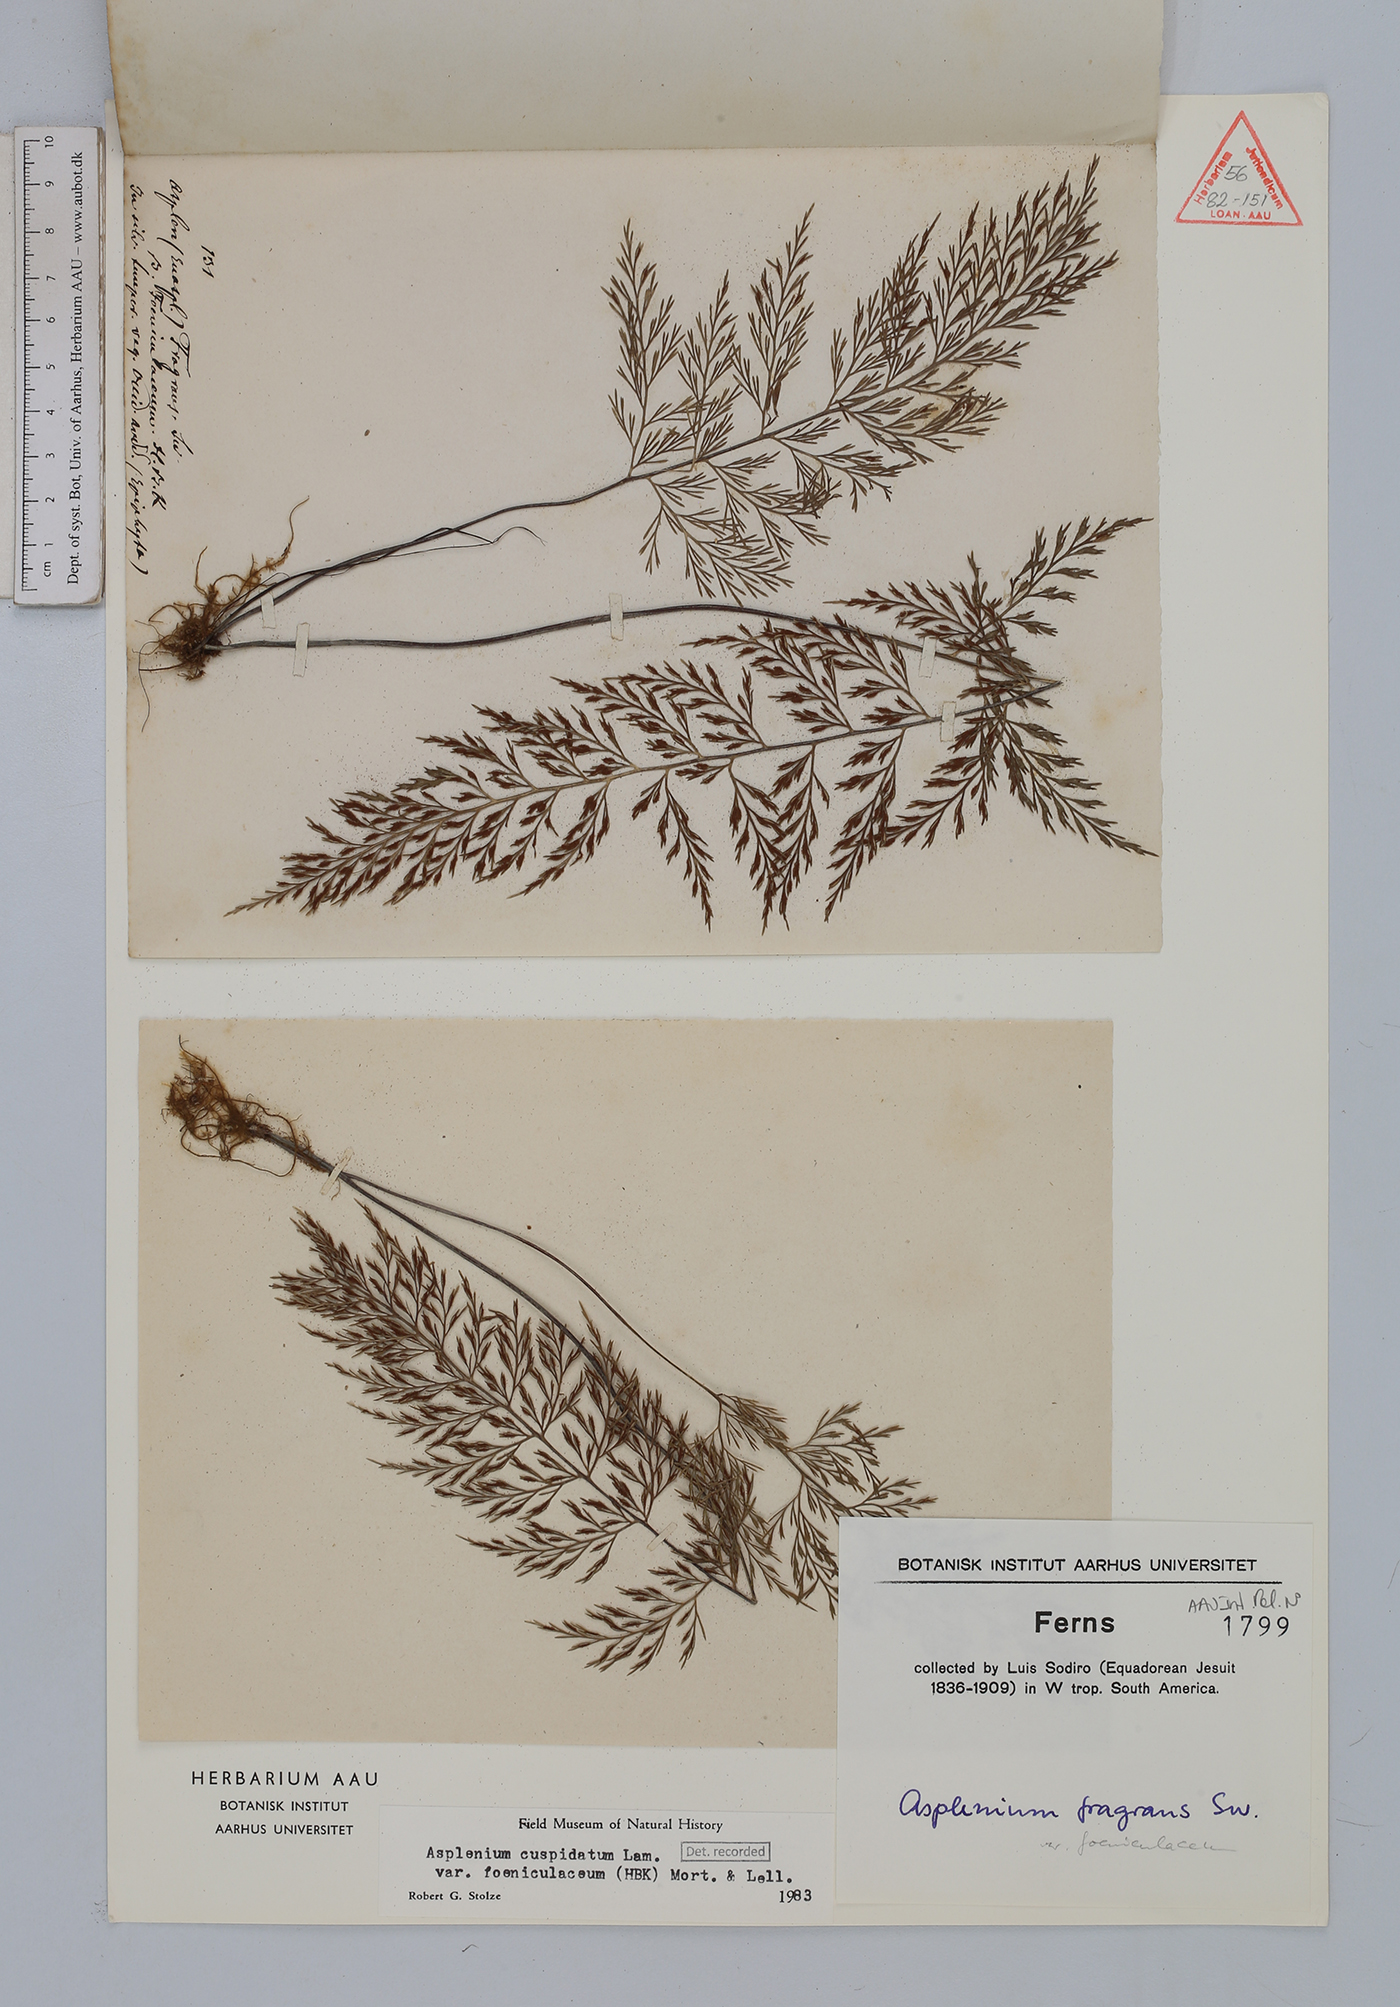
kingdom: Plantae
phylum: Tracheophyta
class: Polypodiopsida
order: Polypodiales
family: Aspleniaceae
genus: Asplenium
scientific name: Asplenium fragrans
